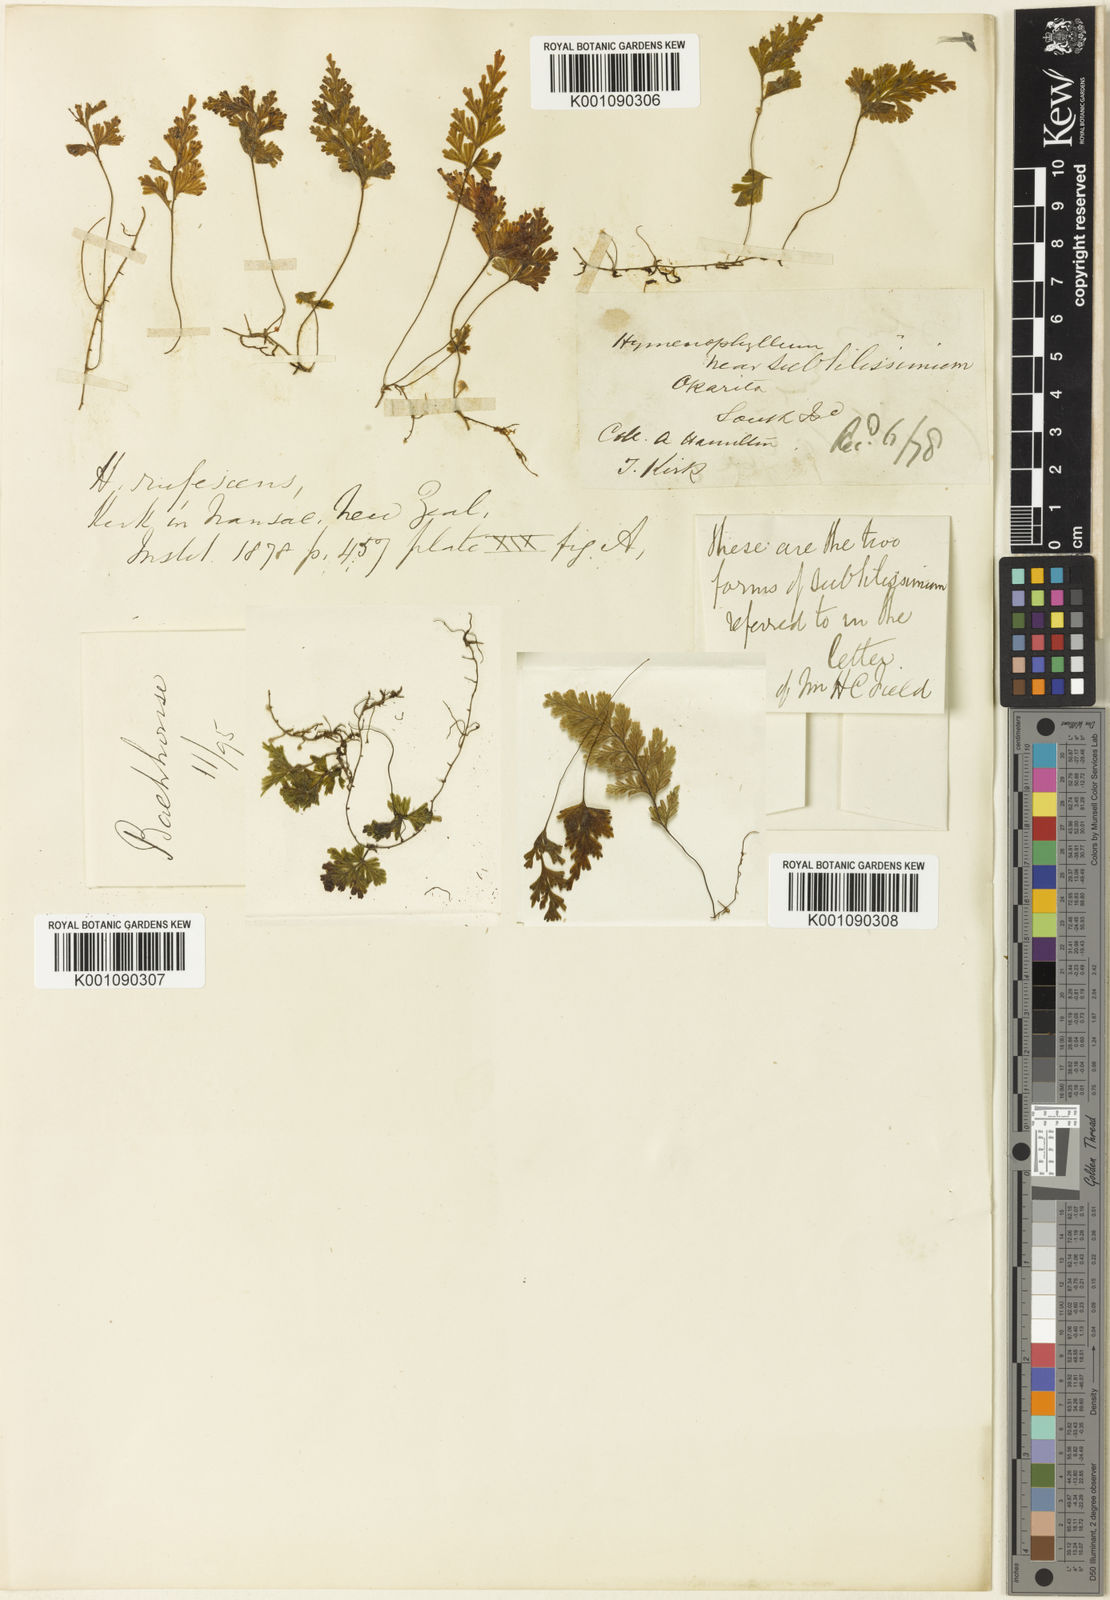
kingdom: Plantae
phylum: Tracheophyta
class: Polypodiopsida
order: Hymenophyllales
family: Hymenophyllaceae
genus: Hymenophyllum
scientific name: Hymenophyllum rufescens
